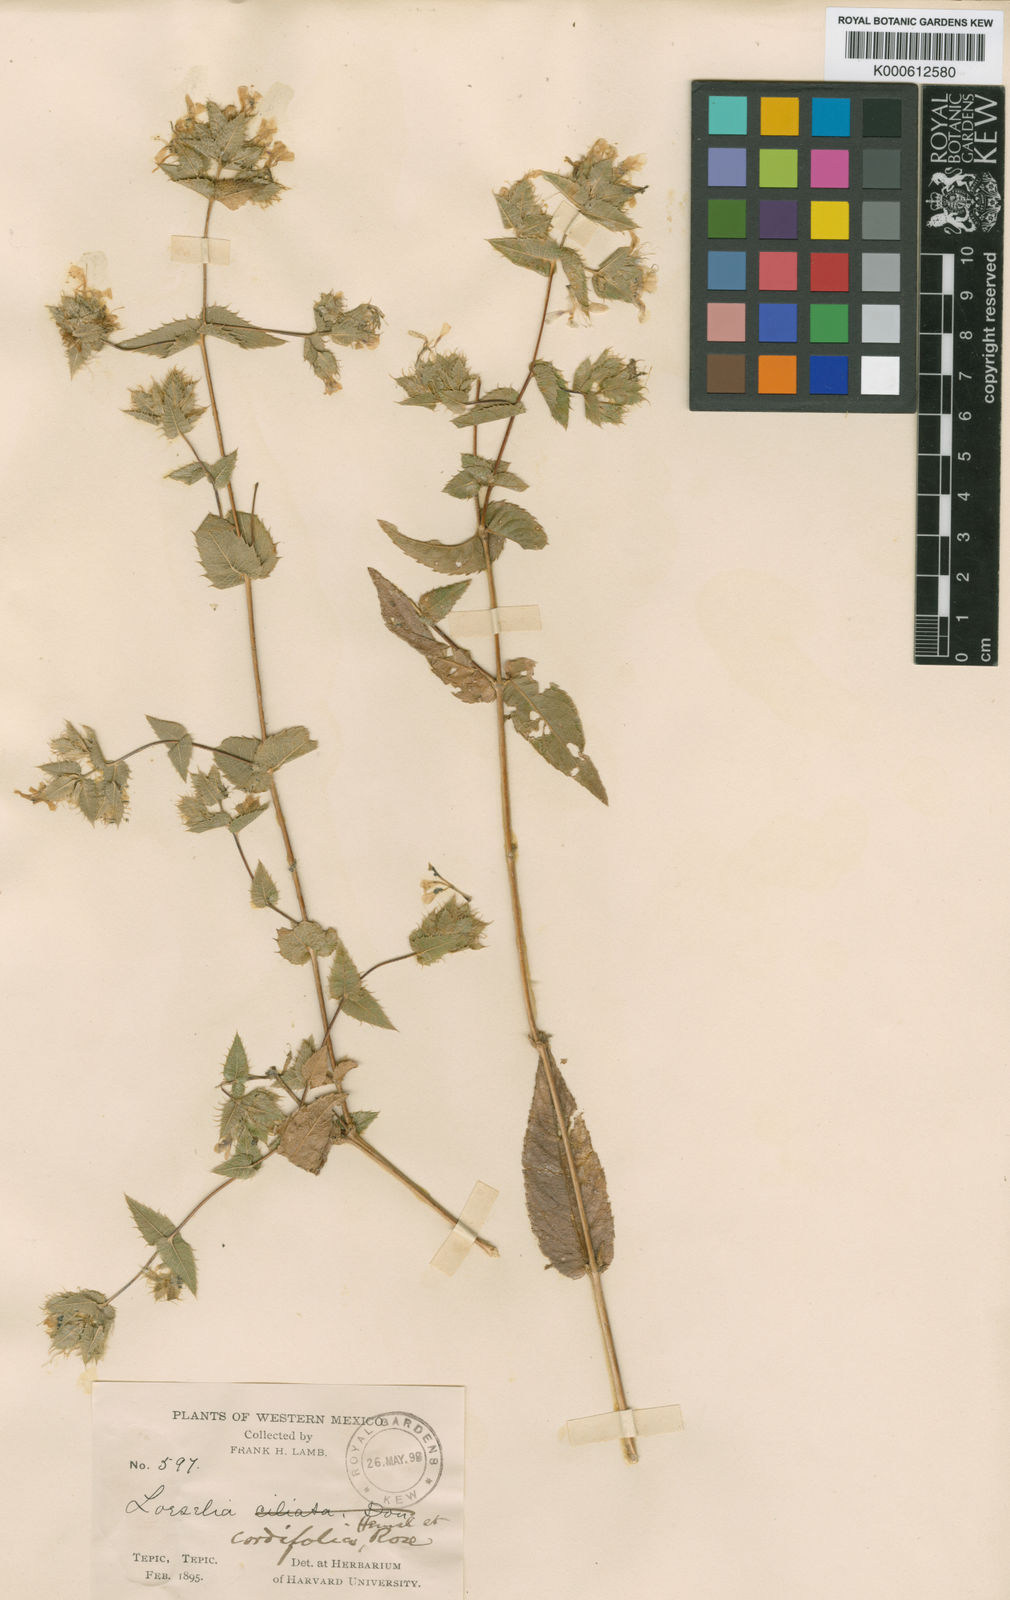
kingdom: Plantae
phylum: Tracheophyta
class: Magnoliopsida
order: Ericales
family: Polemoniaceae
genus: Loeselia
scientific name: Loeselia amplectens
